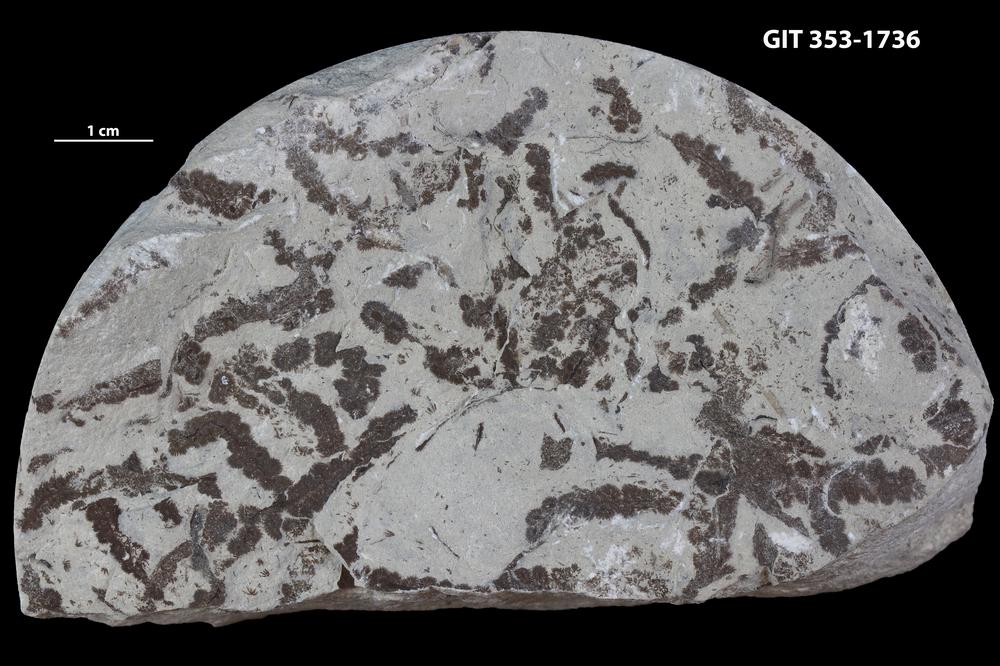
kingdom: Plantae
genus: Leveilleites
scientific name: Leveilleites hartnageli
